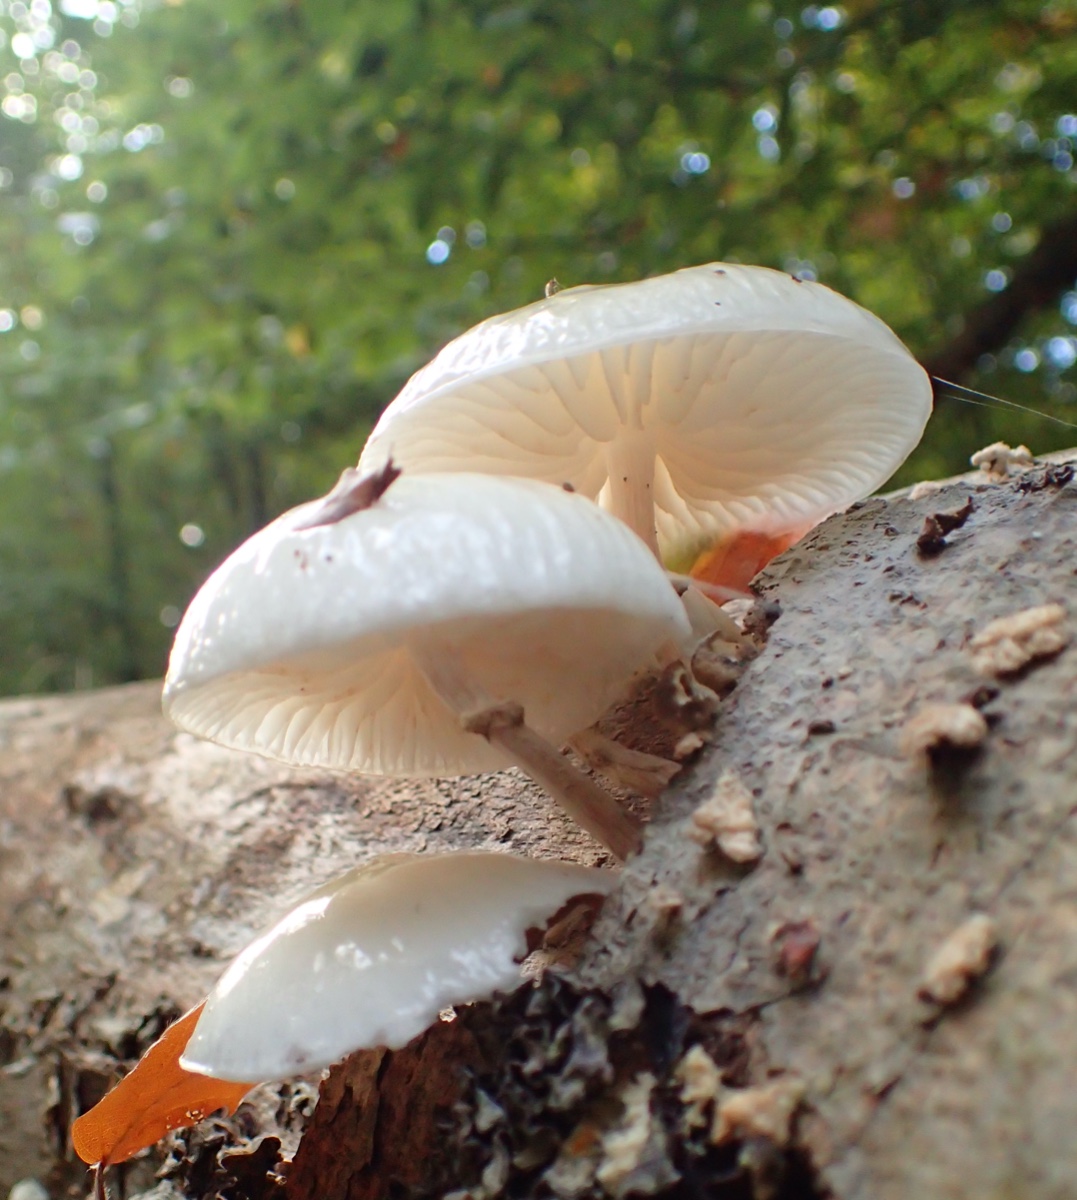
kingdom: Fungi
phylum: Basidiomycota
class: Agaricomycetes
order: Agaricales
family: Physalacriaceae
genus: Mucidula
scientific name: Mucidula mucida
